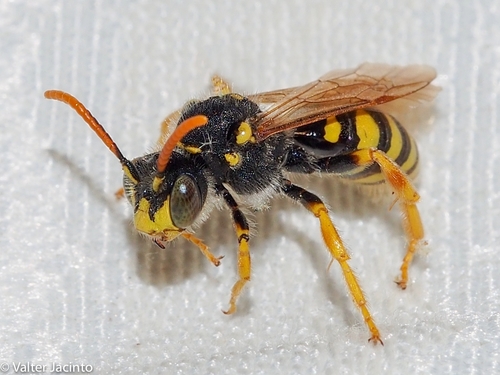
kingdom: Animalia
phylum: Arthropoda
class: Insecta
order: Hymenoptera
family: Apidae
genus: Nomada
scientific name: Nomada nobilis
